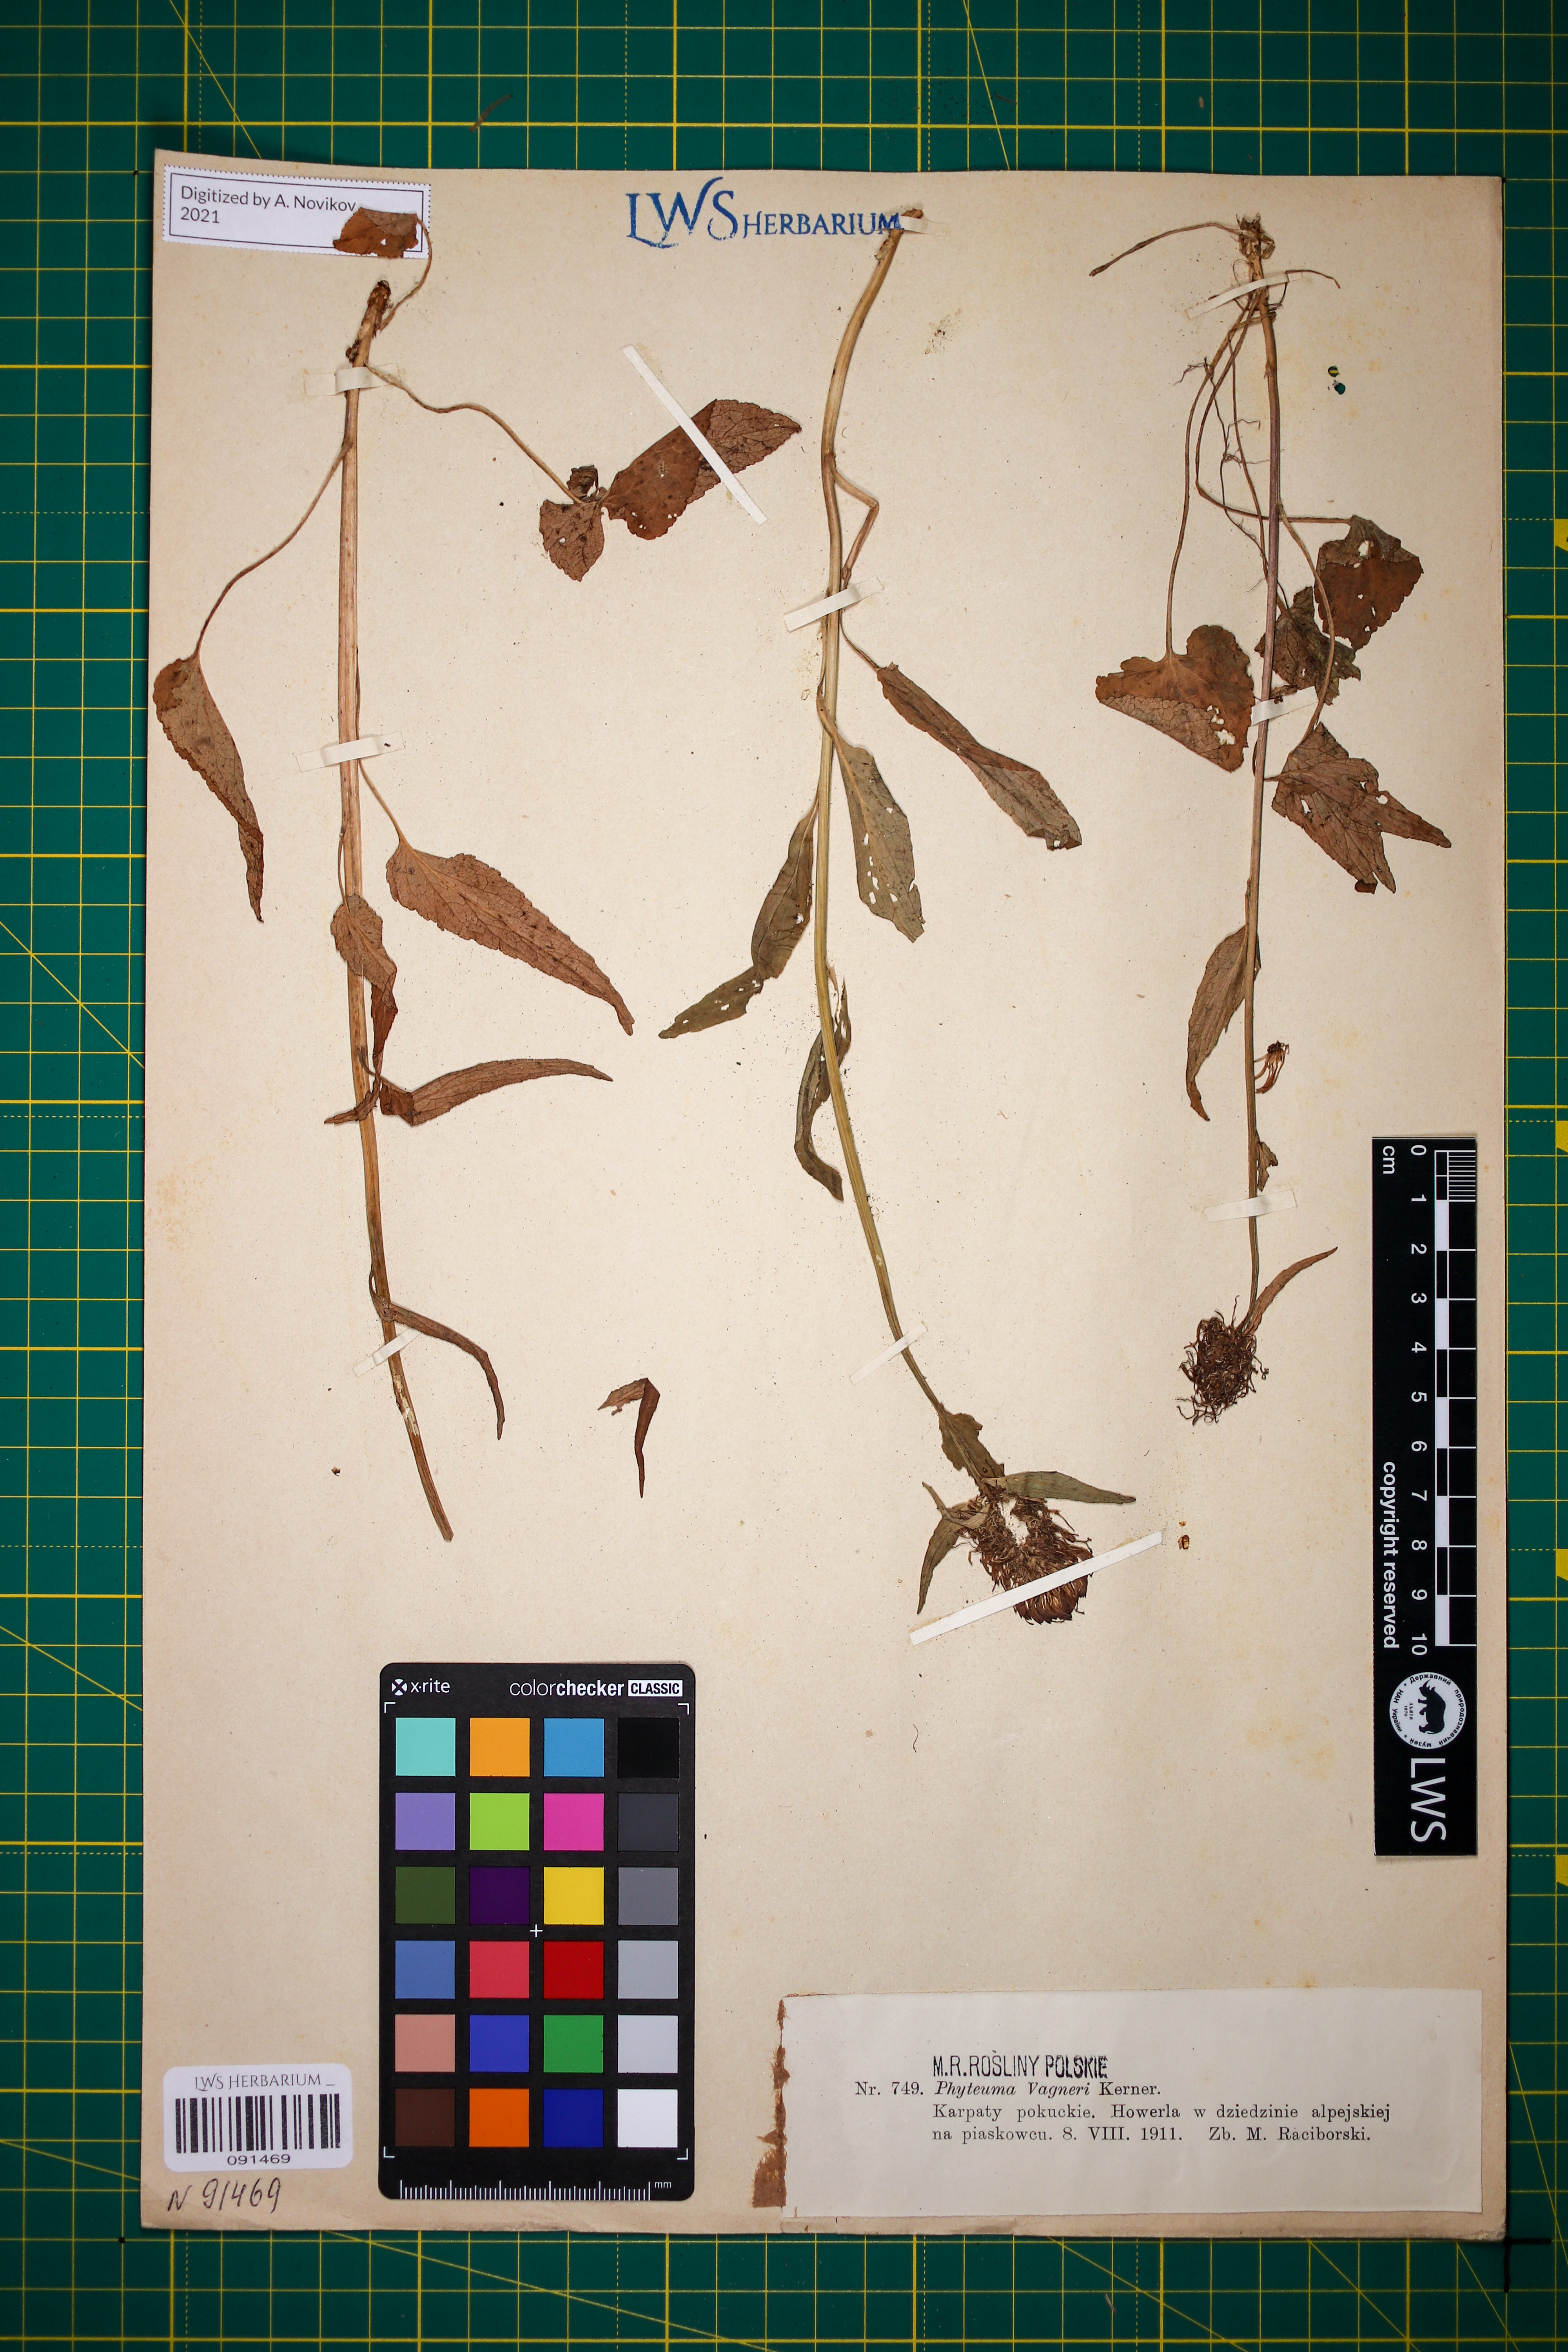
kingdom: Plantae
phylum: Tracheophyta
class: Magnoliopsida
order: Asterales
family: Campanulaceae
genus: Phyteuma
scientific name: Phyteuma vagneri
